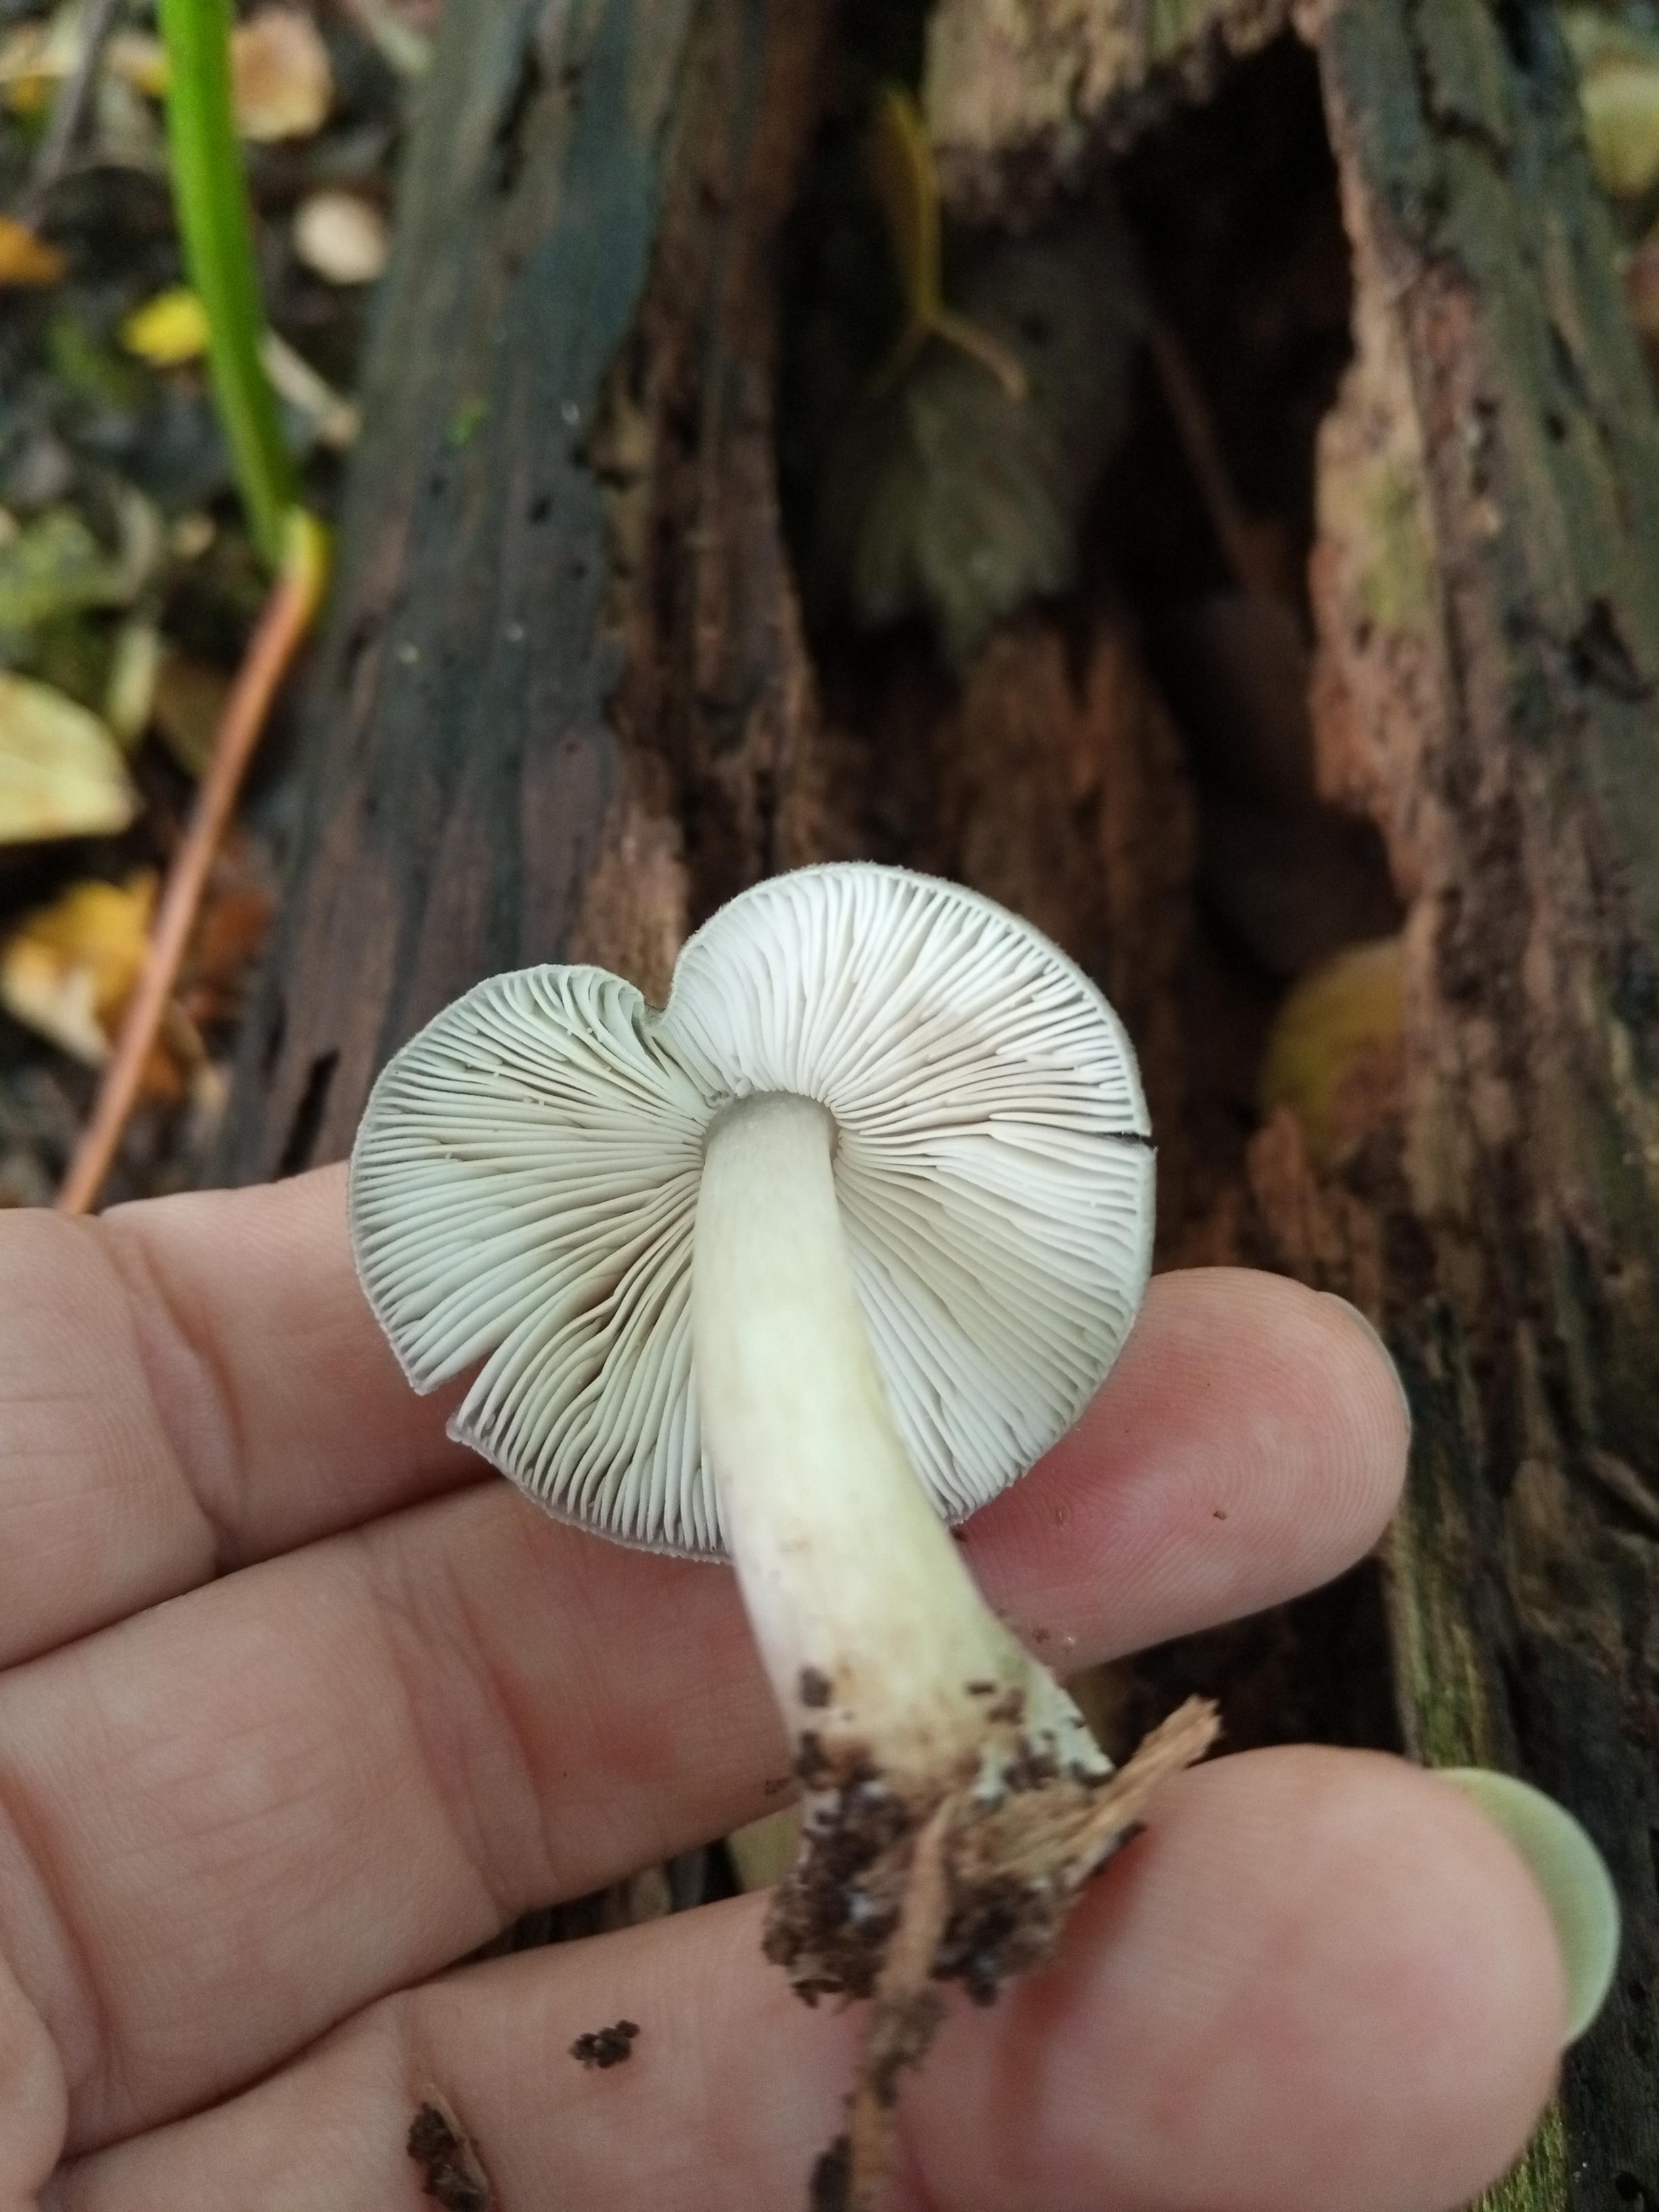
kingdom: Fungi
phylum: Basidiomycota
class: Agaricomycetes
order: Agaricales
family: Pluteaceae
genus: Pluteus
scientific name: Pluteus salicinus
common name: stiv skærmhat
